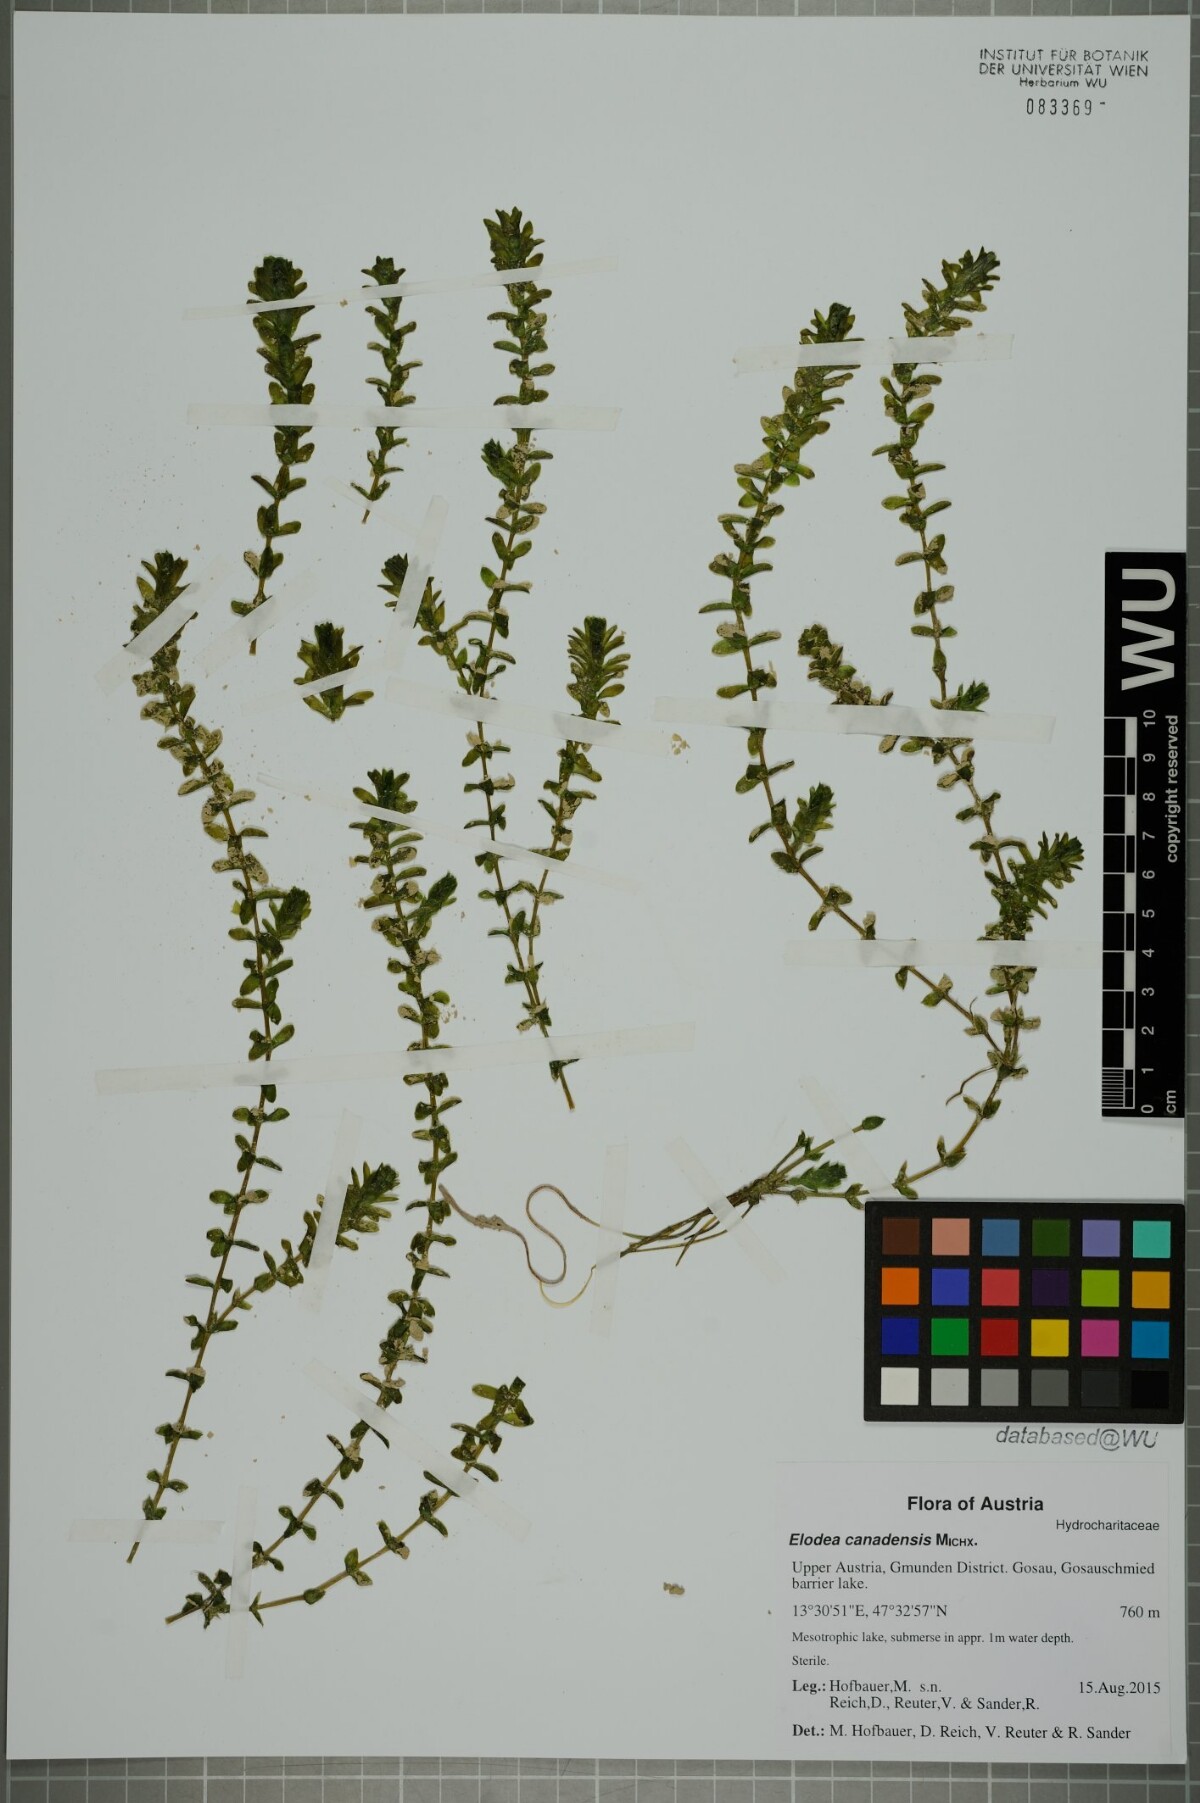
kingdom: Plantae
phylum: Tracheophyta
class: Liliopsida
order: Alismatales
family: Hydrocharitaceae
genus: Elodea
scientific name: Elodea canadensis
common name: Canadian waterweed
